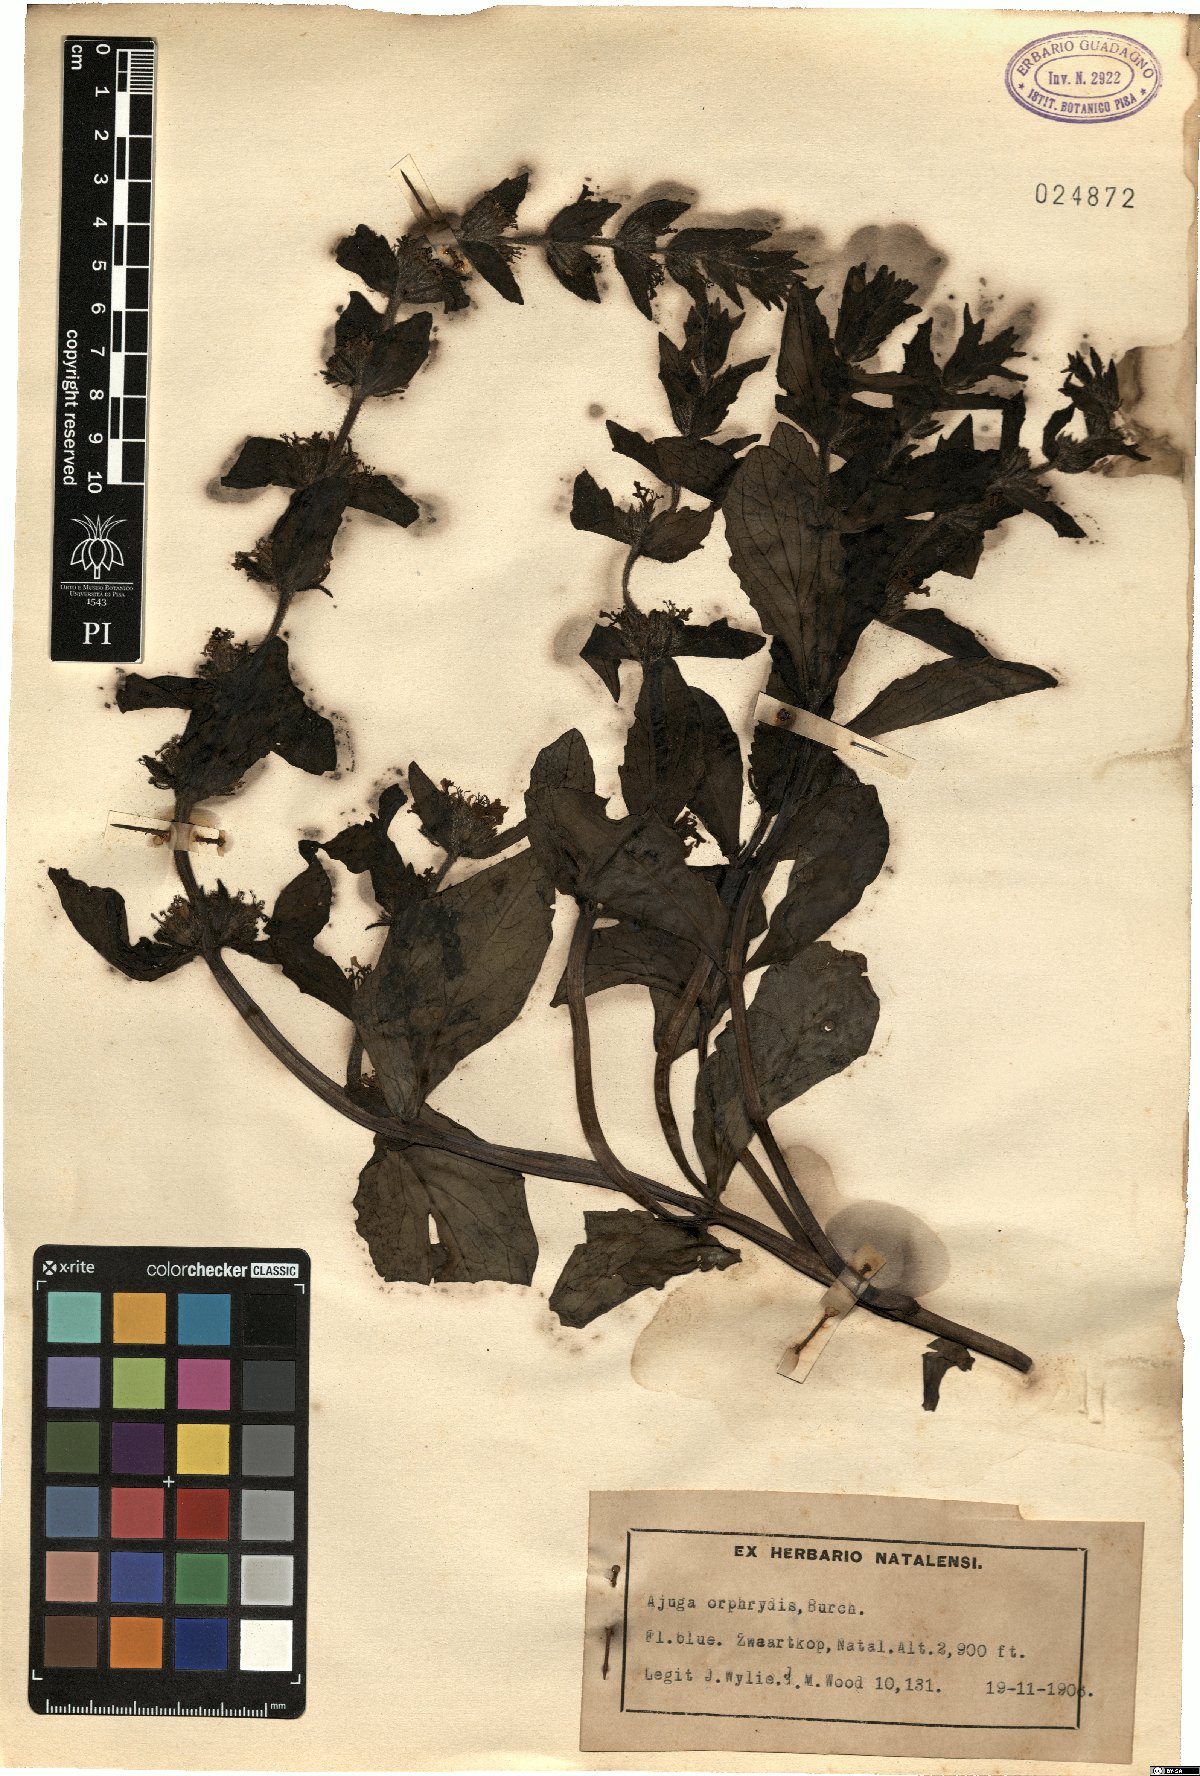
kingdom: Plantae
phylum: Tracheophyta
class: Magnoliopsida
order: Lamiales
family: Lamiaceae
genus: Ajuga
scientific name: Ajuga ophrydis
